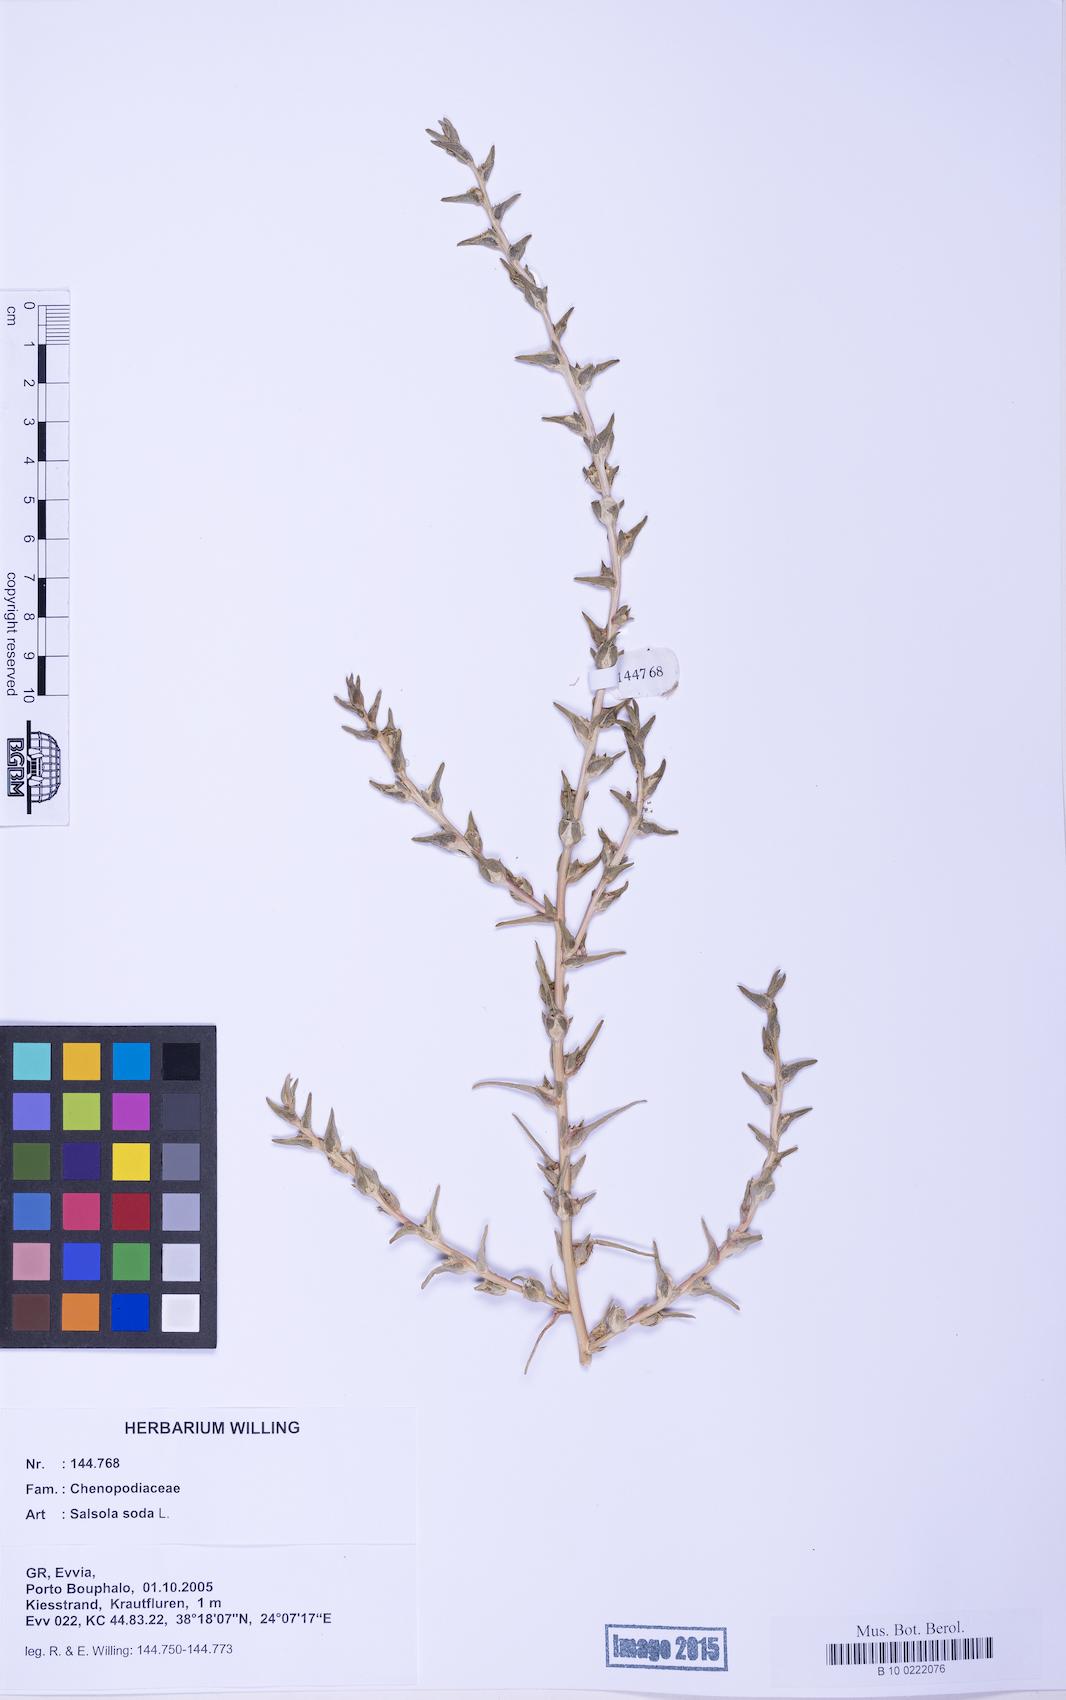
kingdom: Plantae
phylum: Tracheophyta
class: Magnoliopsida
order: Caryophyllales
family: Amaranthaceae
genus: Soda
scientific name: Soda inermis
